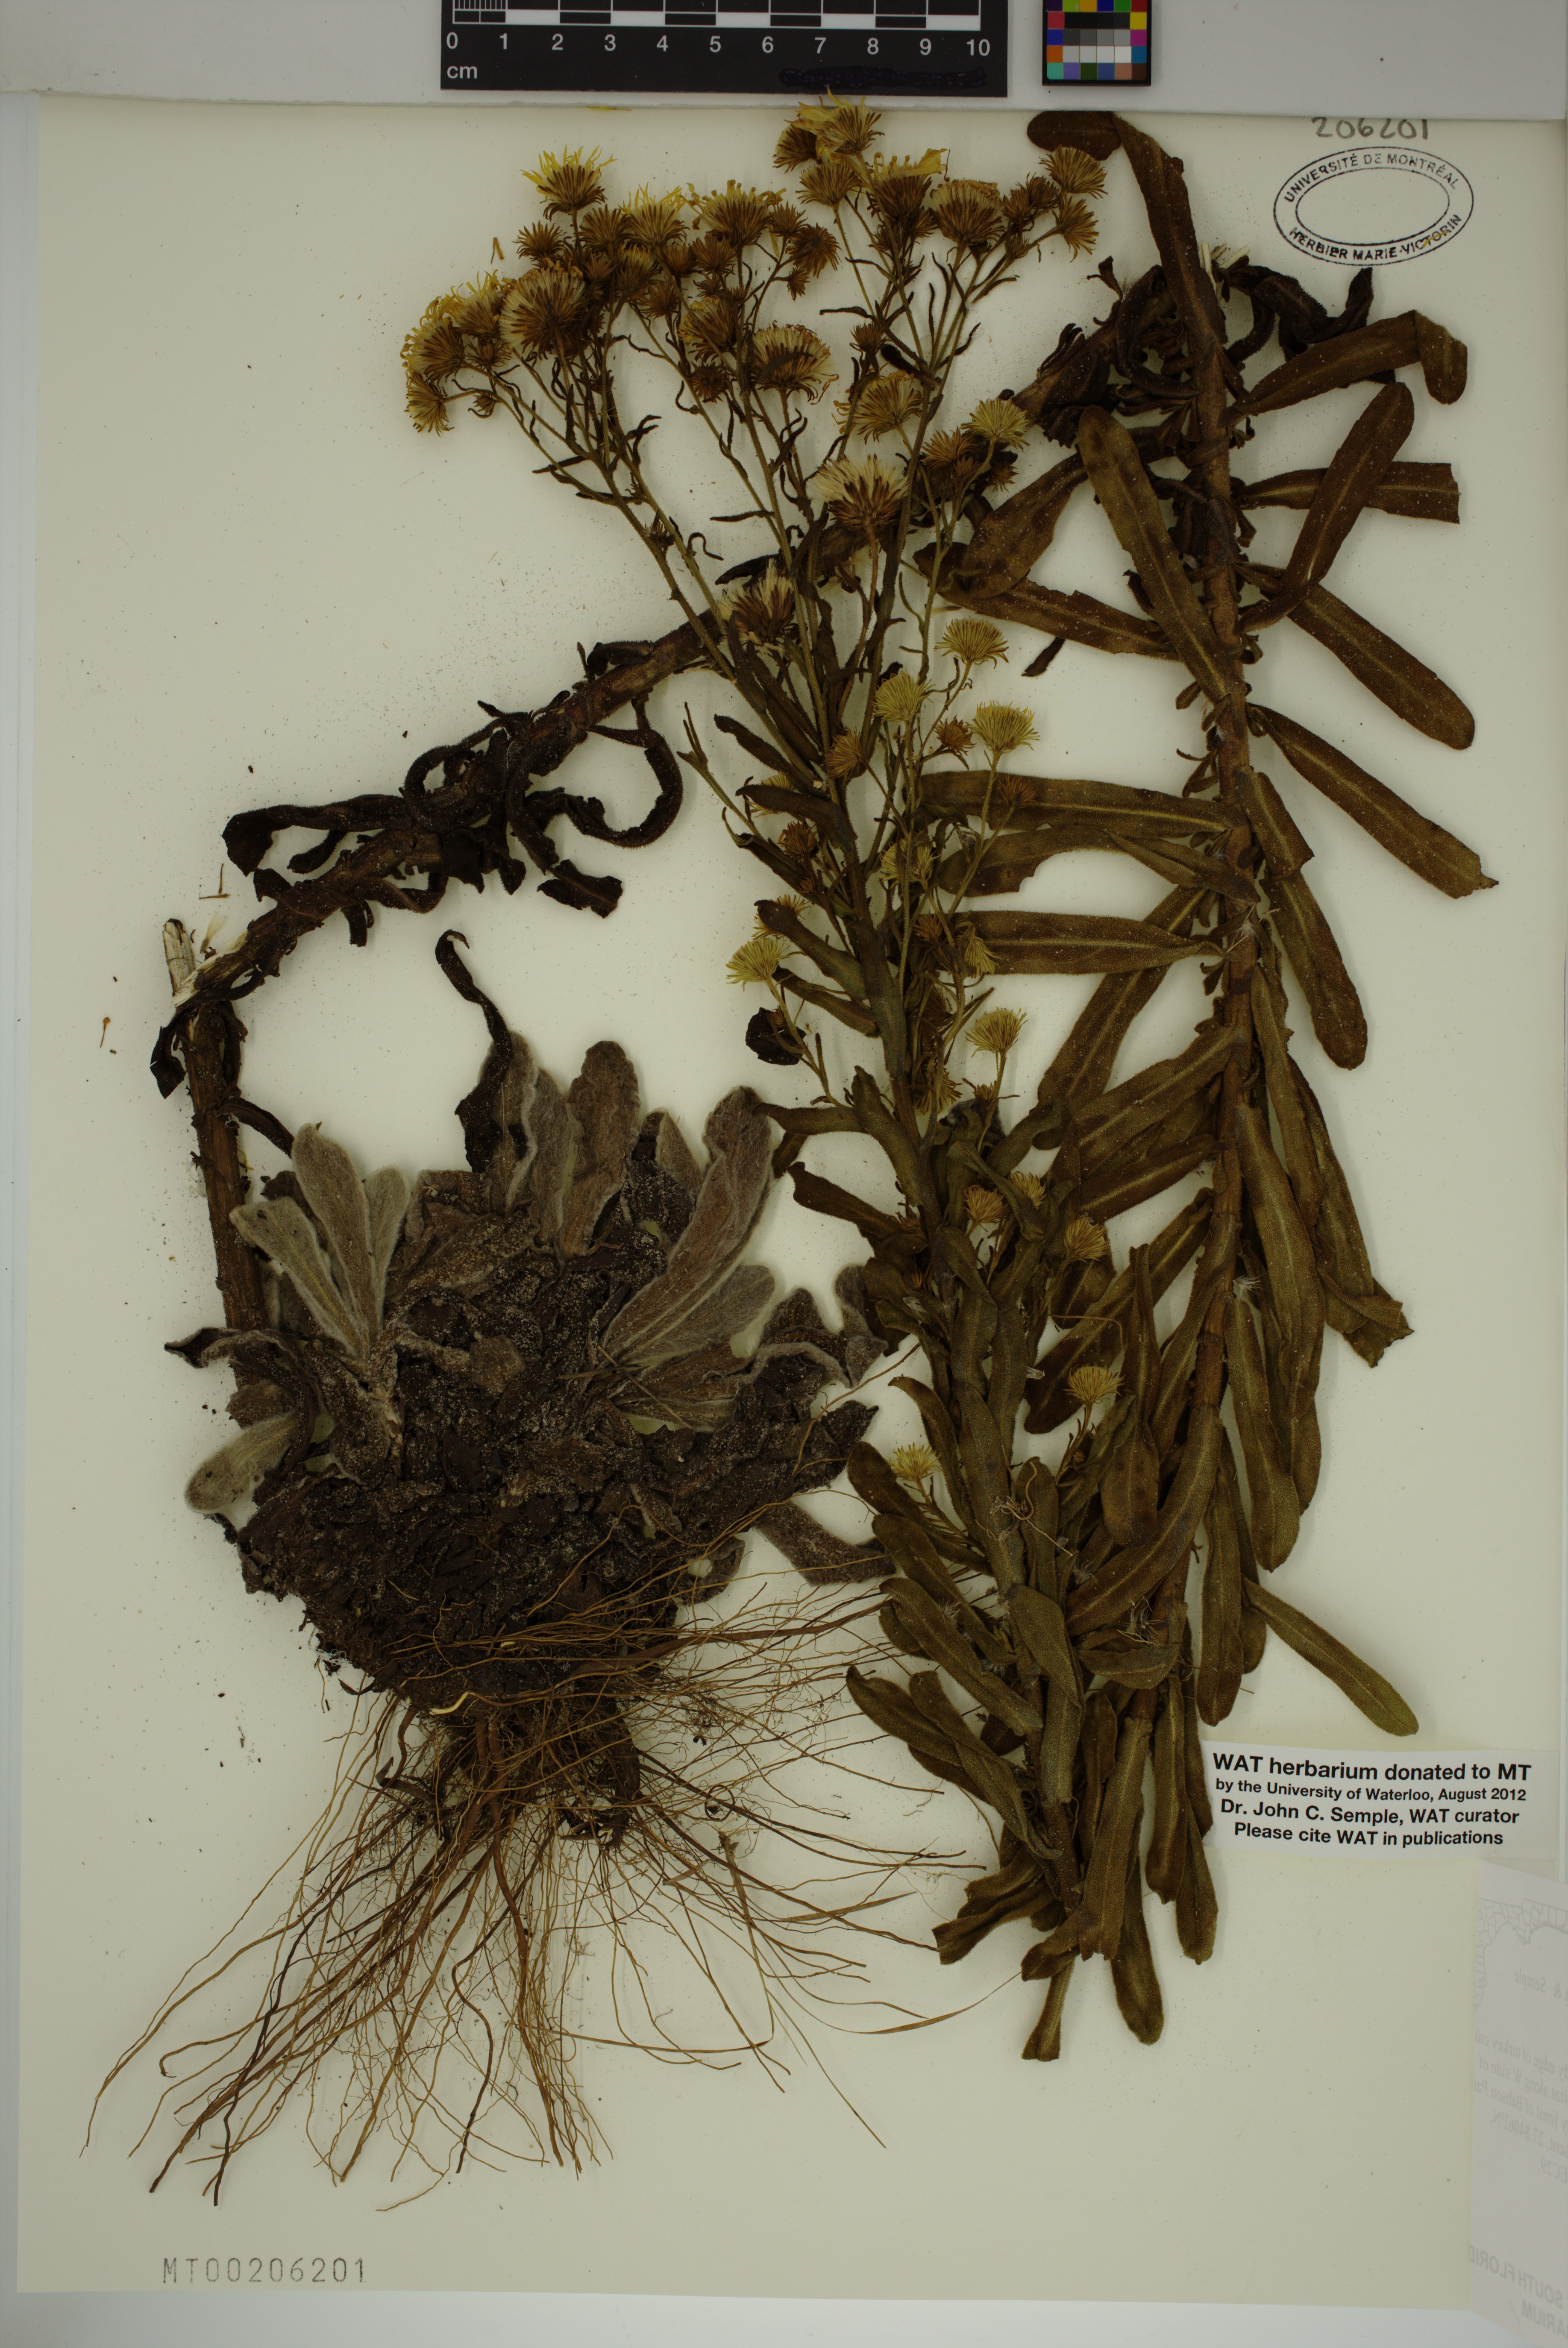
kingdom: Plantae
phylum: Tracheophyta
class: Magnoliopsida
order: Asterales
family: Asteraceae
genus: Chrysopsis
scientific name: Chrysopsis delaneyi
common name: Delaney's goldenaster
